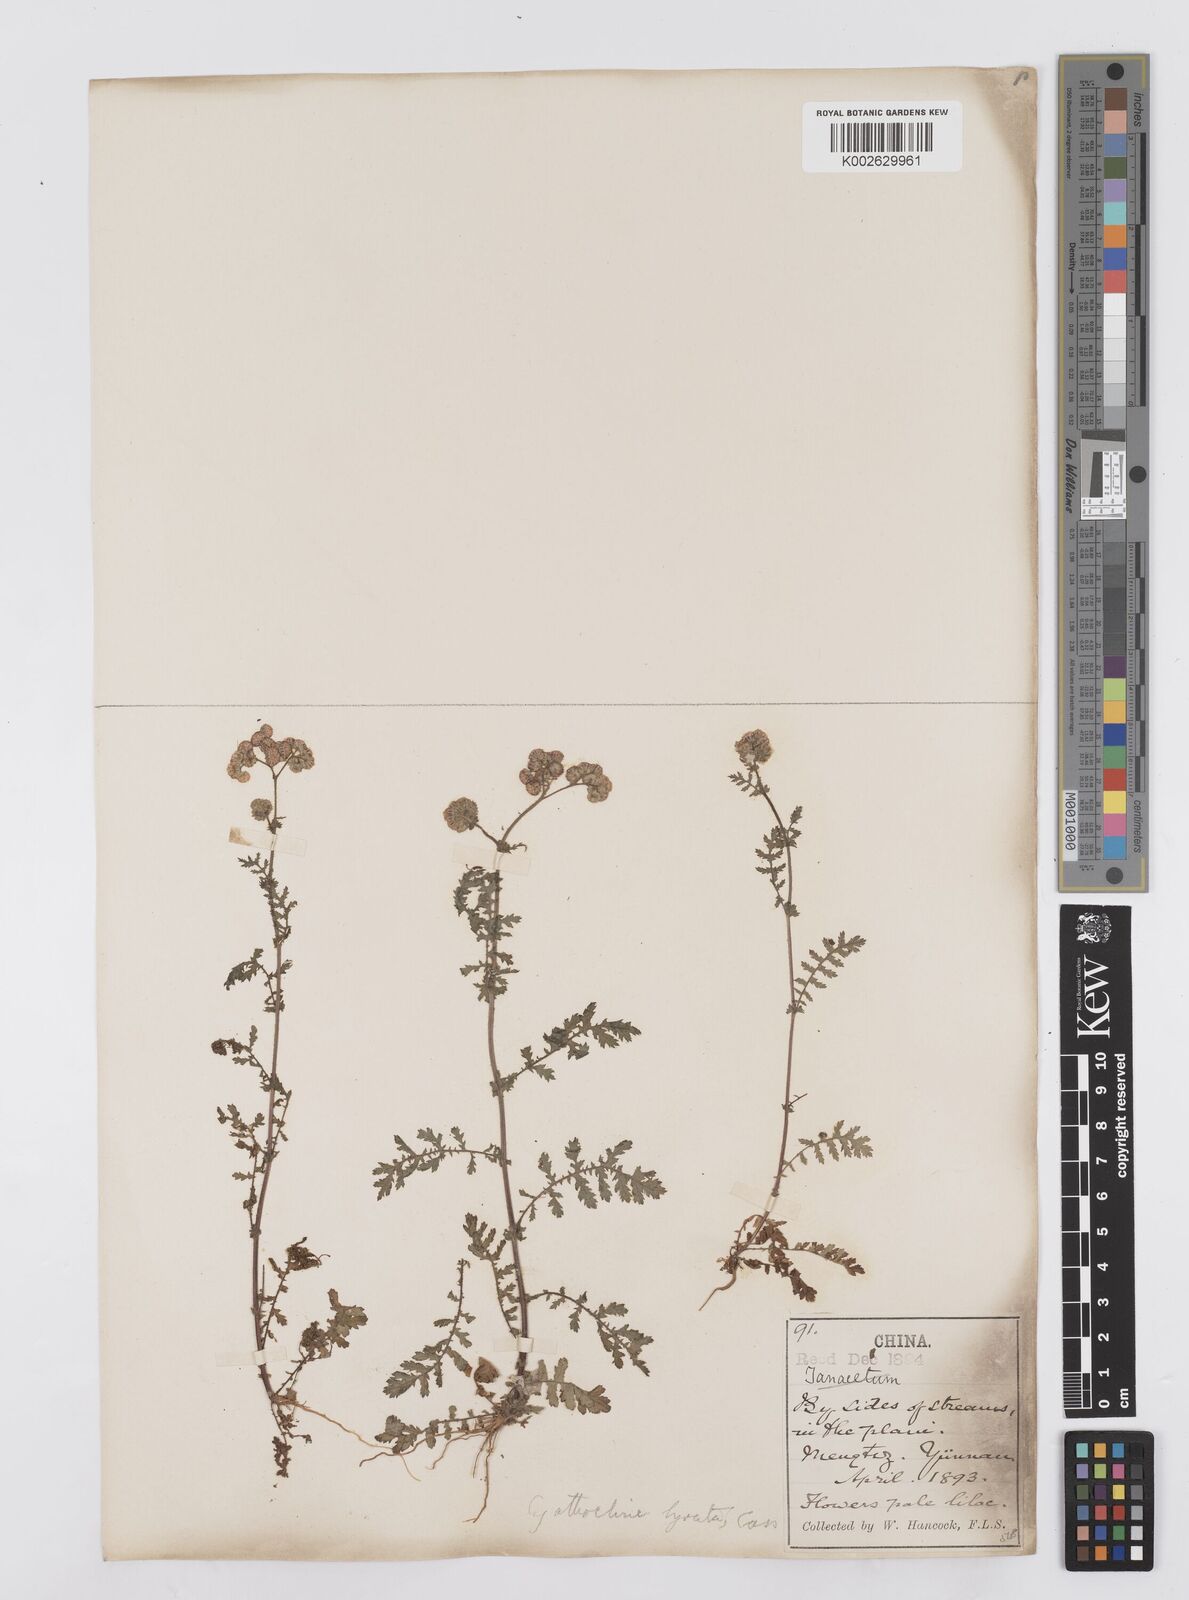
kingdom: Plantae
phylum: Tracheophyta
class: Magnoliopsida
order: Asterales
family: Asteraceae
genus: Cyathocline
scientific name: Cyathocline purpurea
